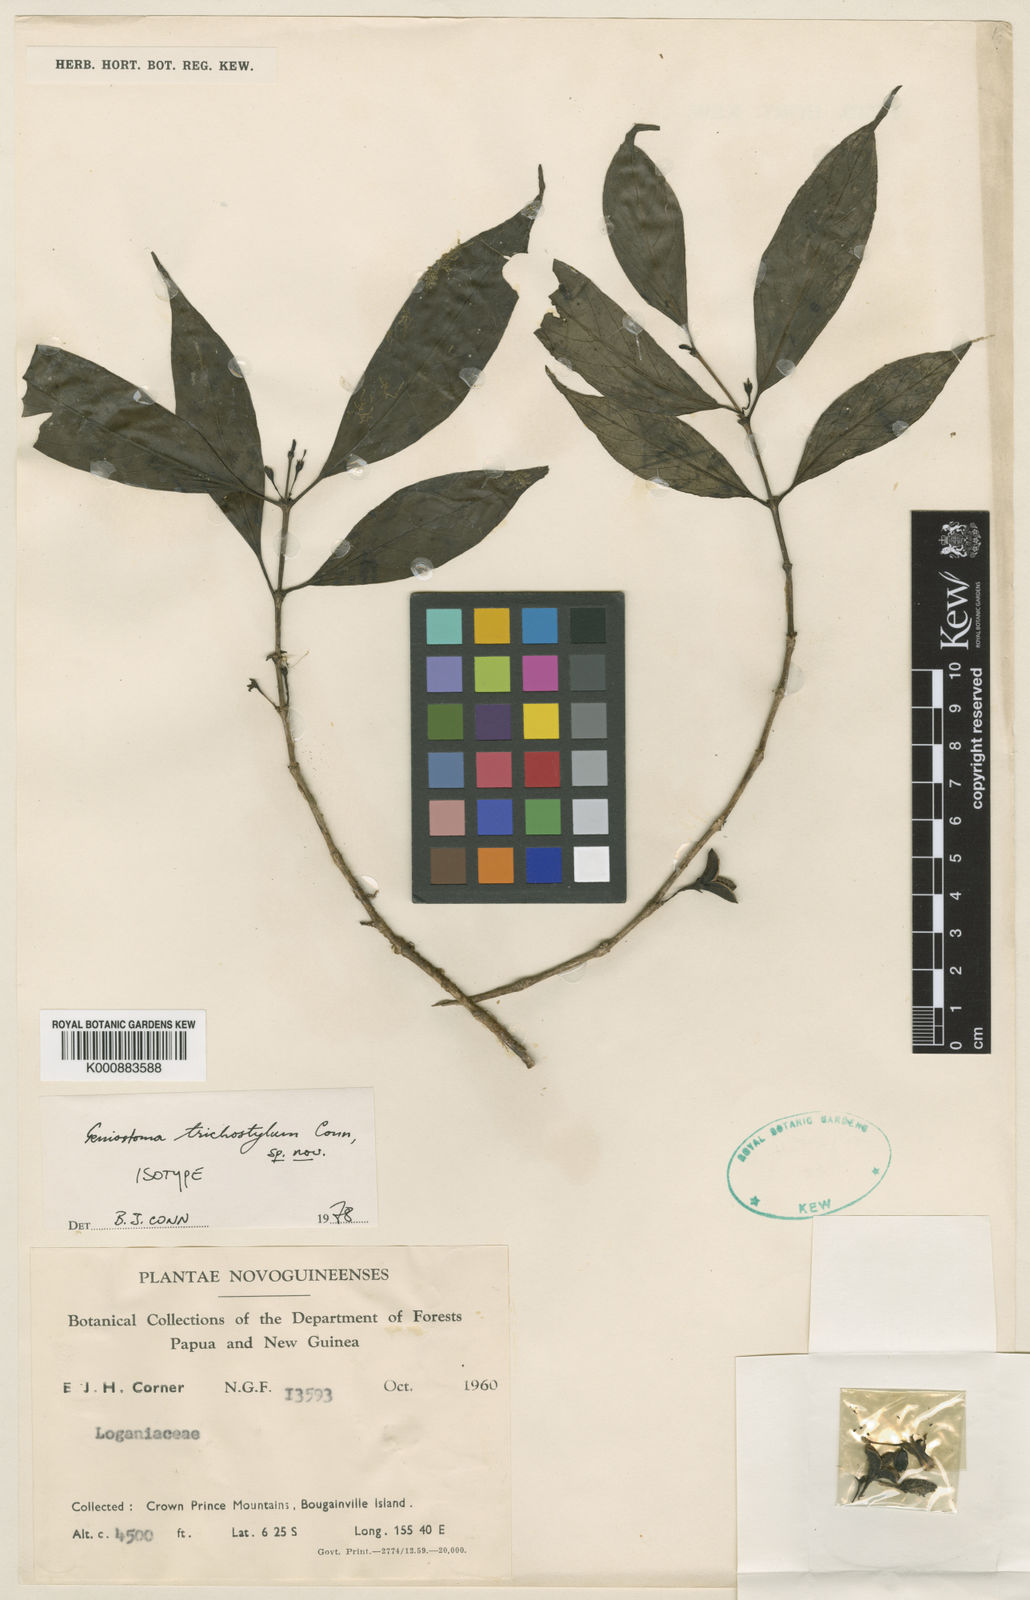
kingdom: Plantae
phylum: Tracheophyta
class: Magnoliopsida
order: Gentianales
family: Loganiaceae
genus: Geniostoma
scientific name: Geniostoma trichostylum
